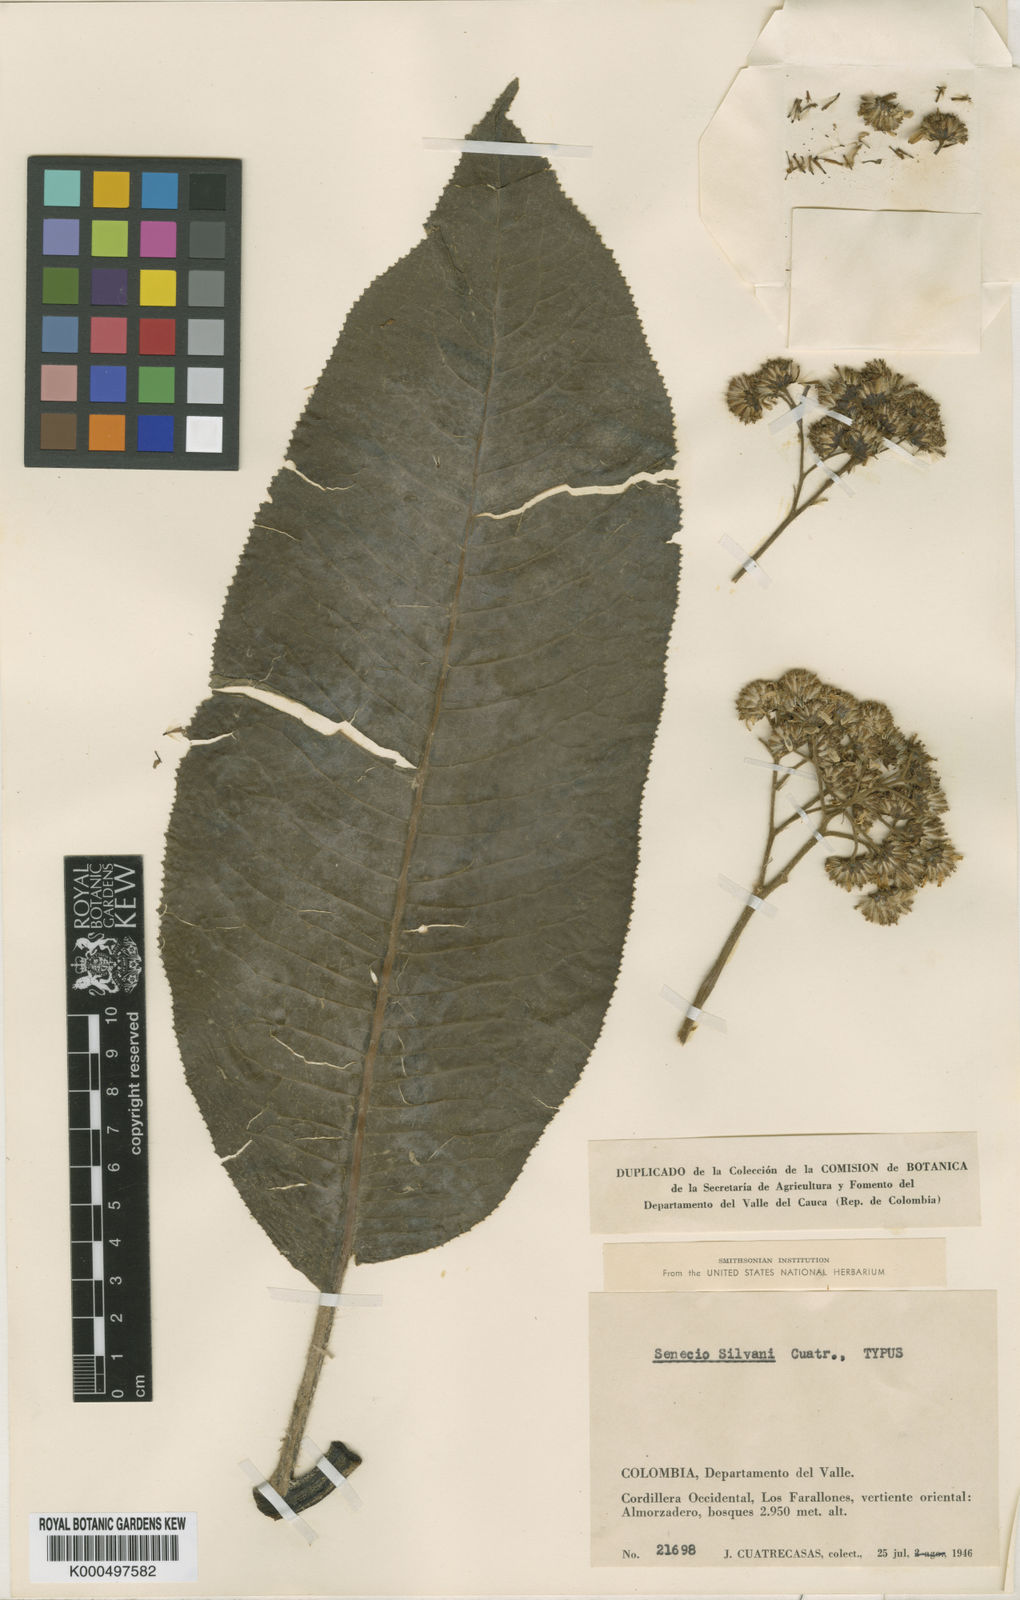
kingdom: Plantae
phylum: Tracheophyta
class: Magnoliopsida
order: Asterales
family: Asteraceae
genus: Dendrophorbium
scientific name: Dendrophorbium silvani
